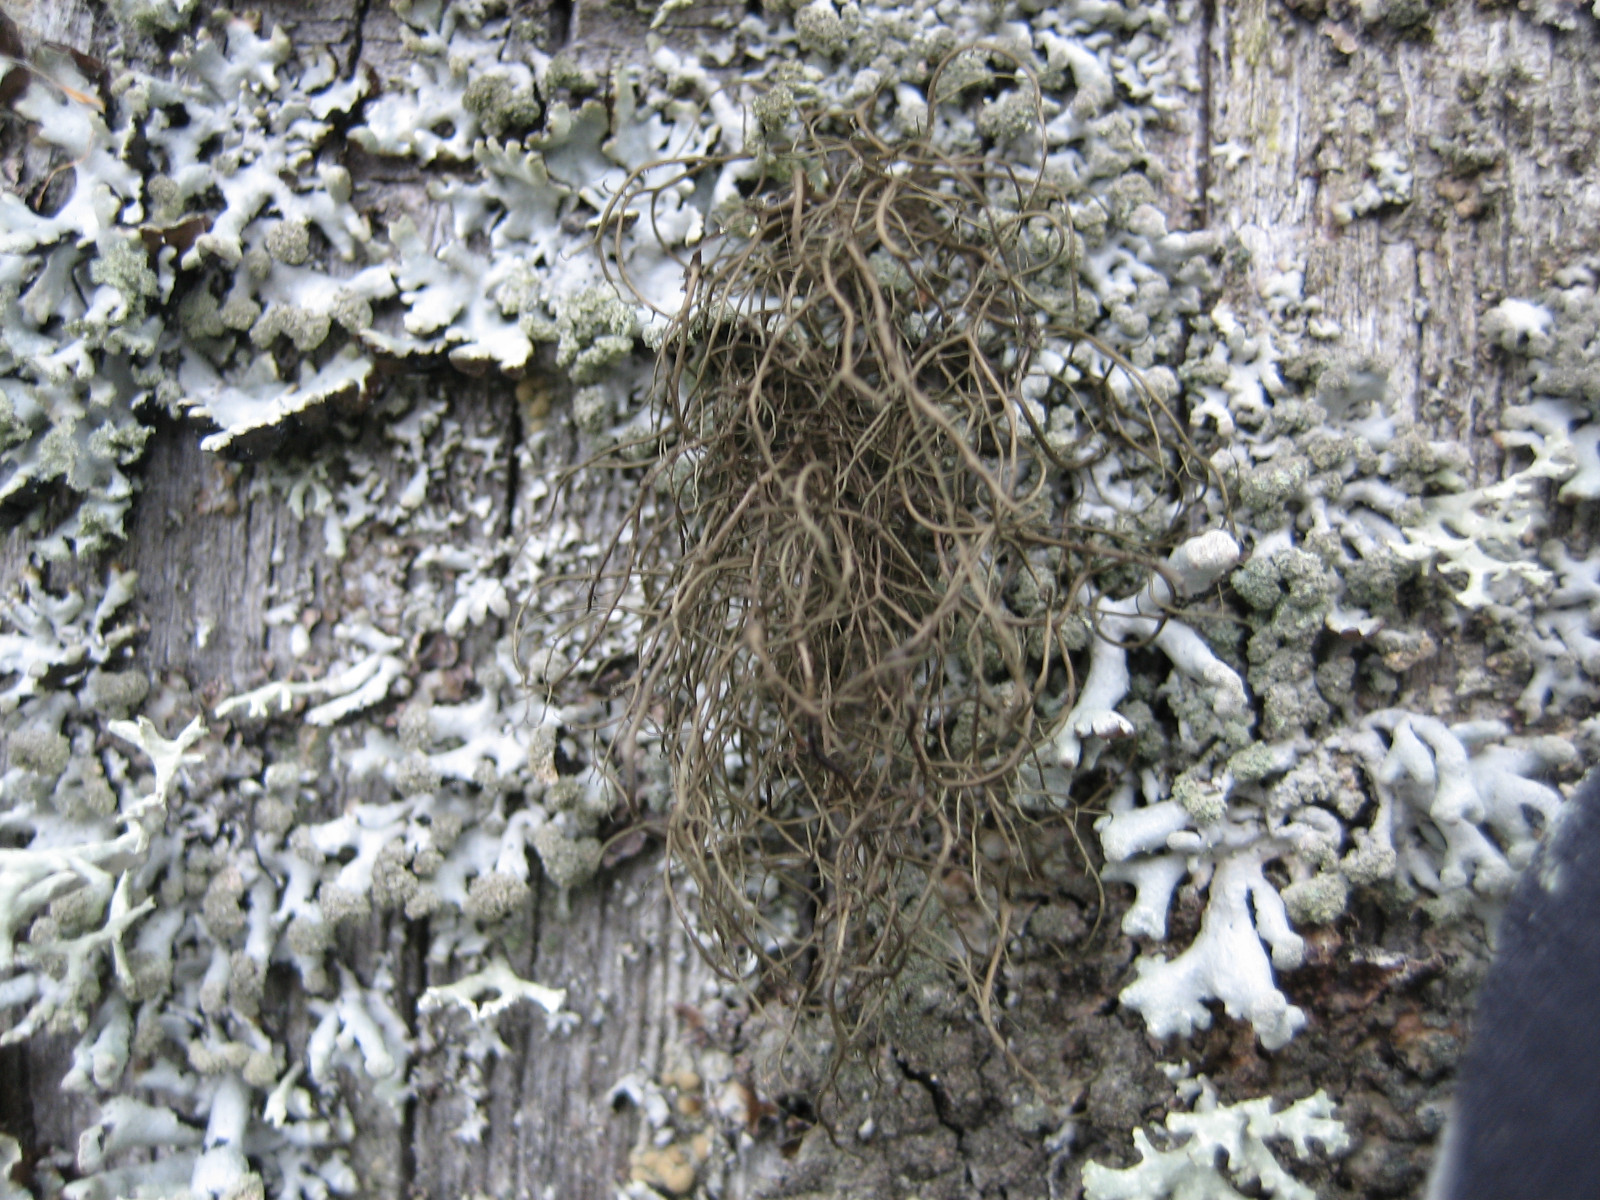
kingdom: Fungi
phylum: Ascomycota
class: Lecanoromycetes
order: Lecanorales
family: Parmeliaceae
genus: Bryoria
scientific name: Bryoria
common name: almindelig mankelav
